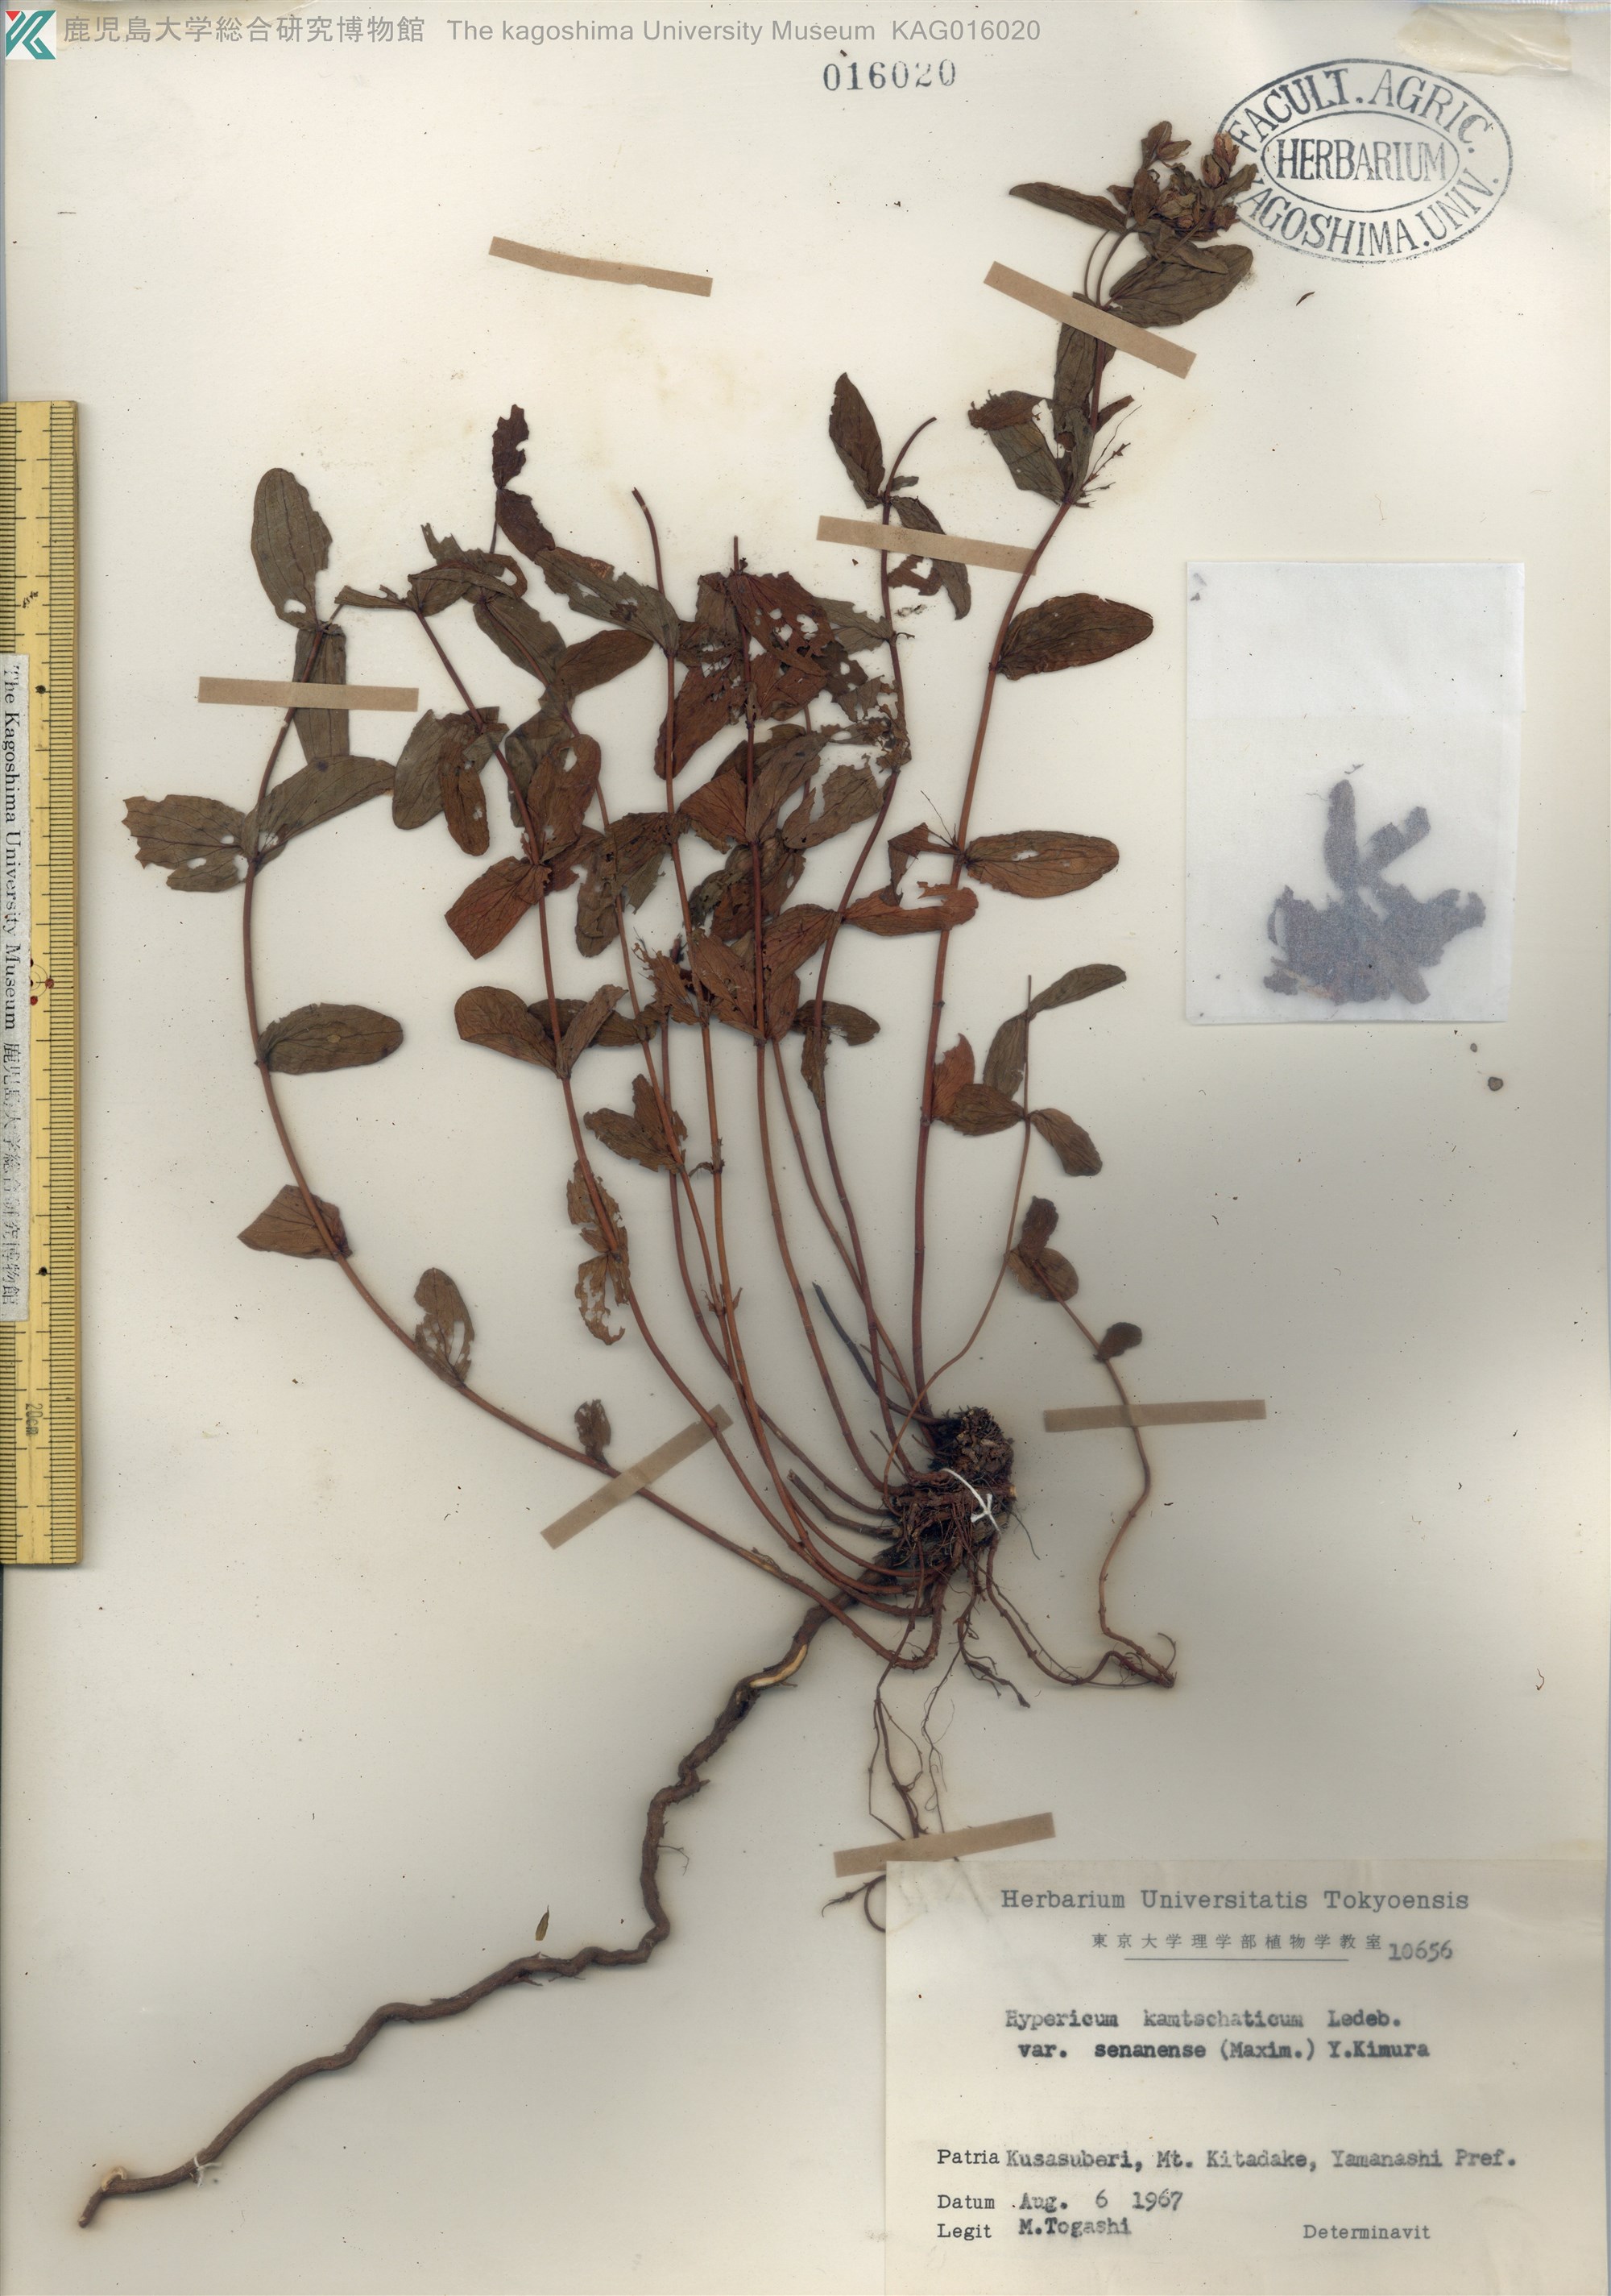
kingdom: Plantae
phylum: Tracheophyta
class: Magnoliopsida
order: Malpighiales
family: Hypericaceae
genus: Hypericum
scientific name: Hypericum kamtschaticum
